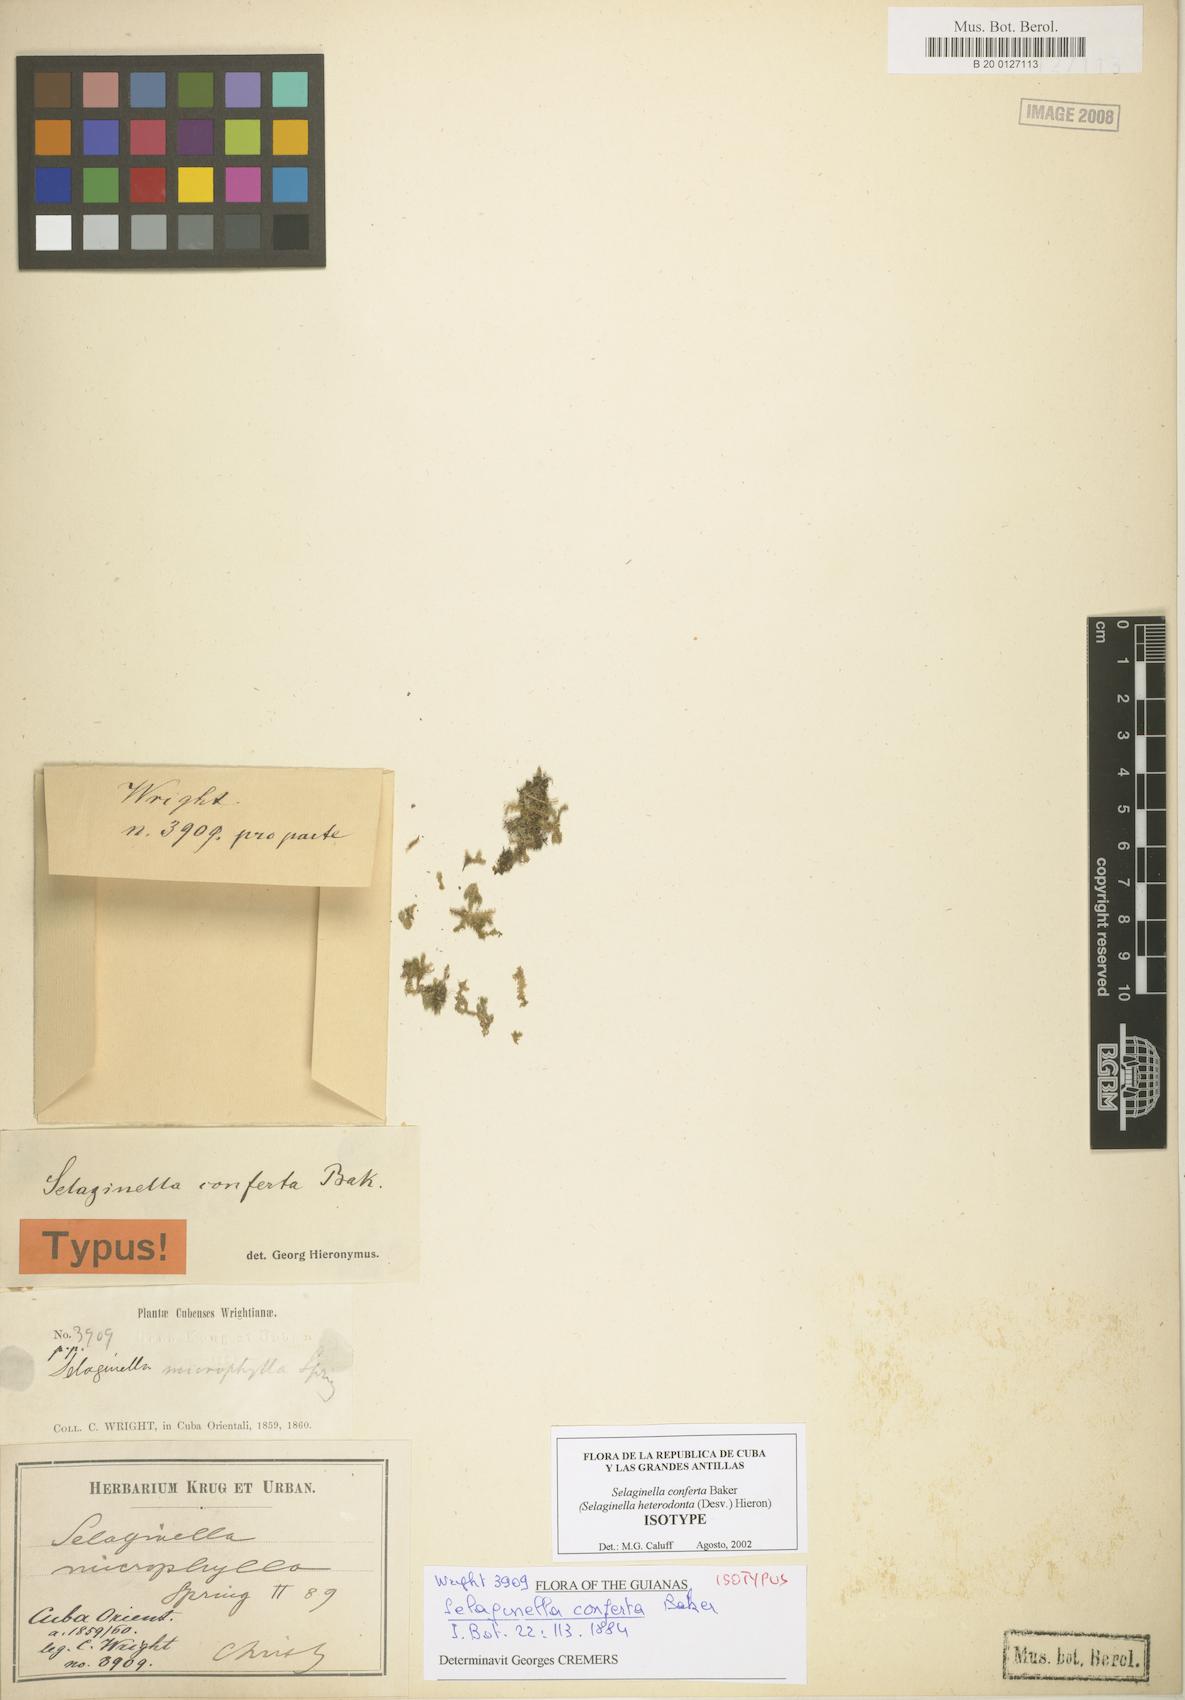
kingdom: Plantae
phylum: Tracheophyta
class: Lycopodiopsida
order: Selaginellales
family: Selaginellaceae
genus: Selaginella
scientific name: Selaginella heterodonta
